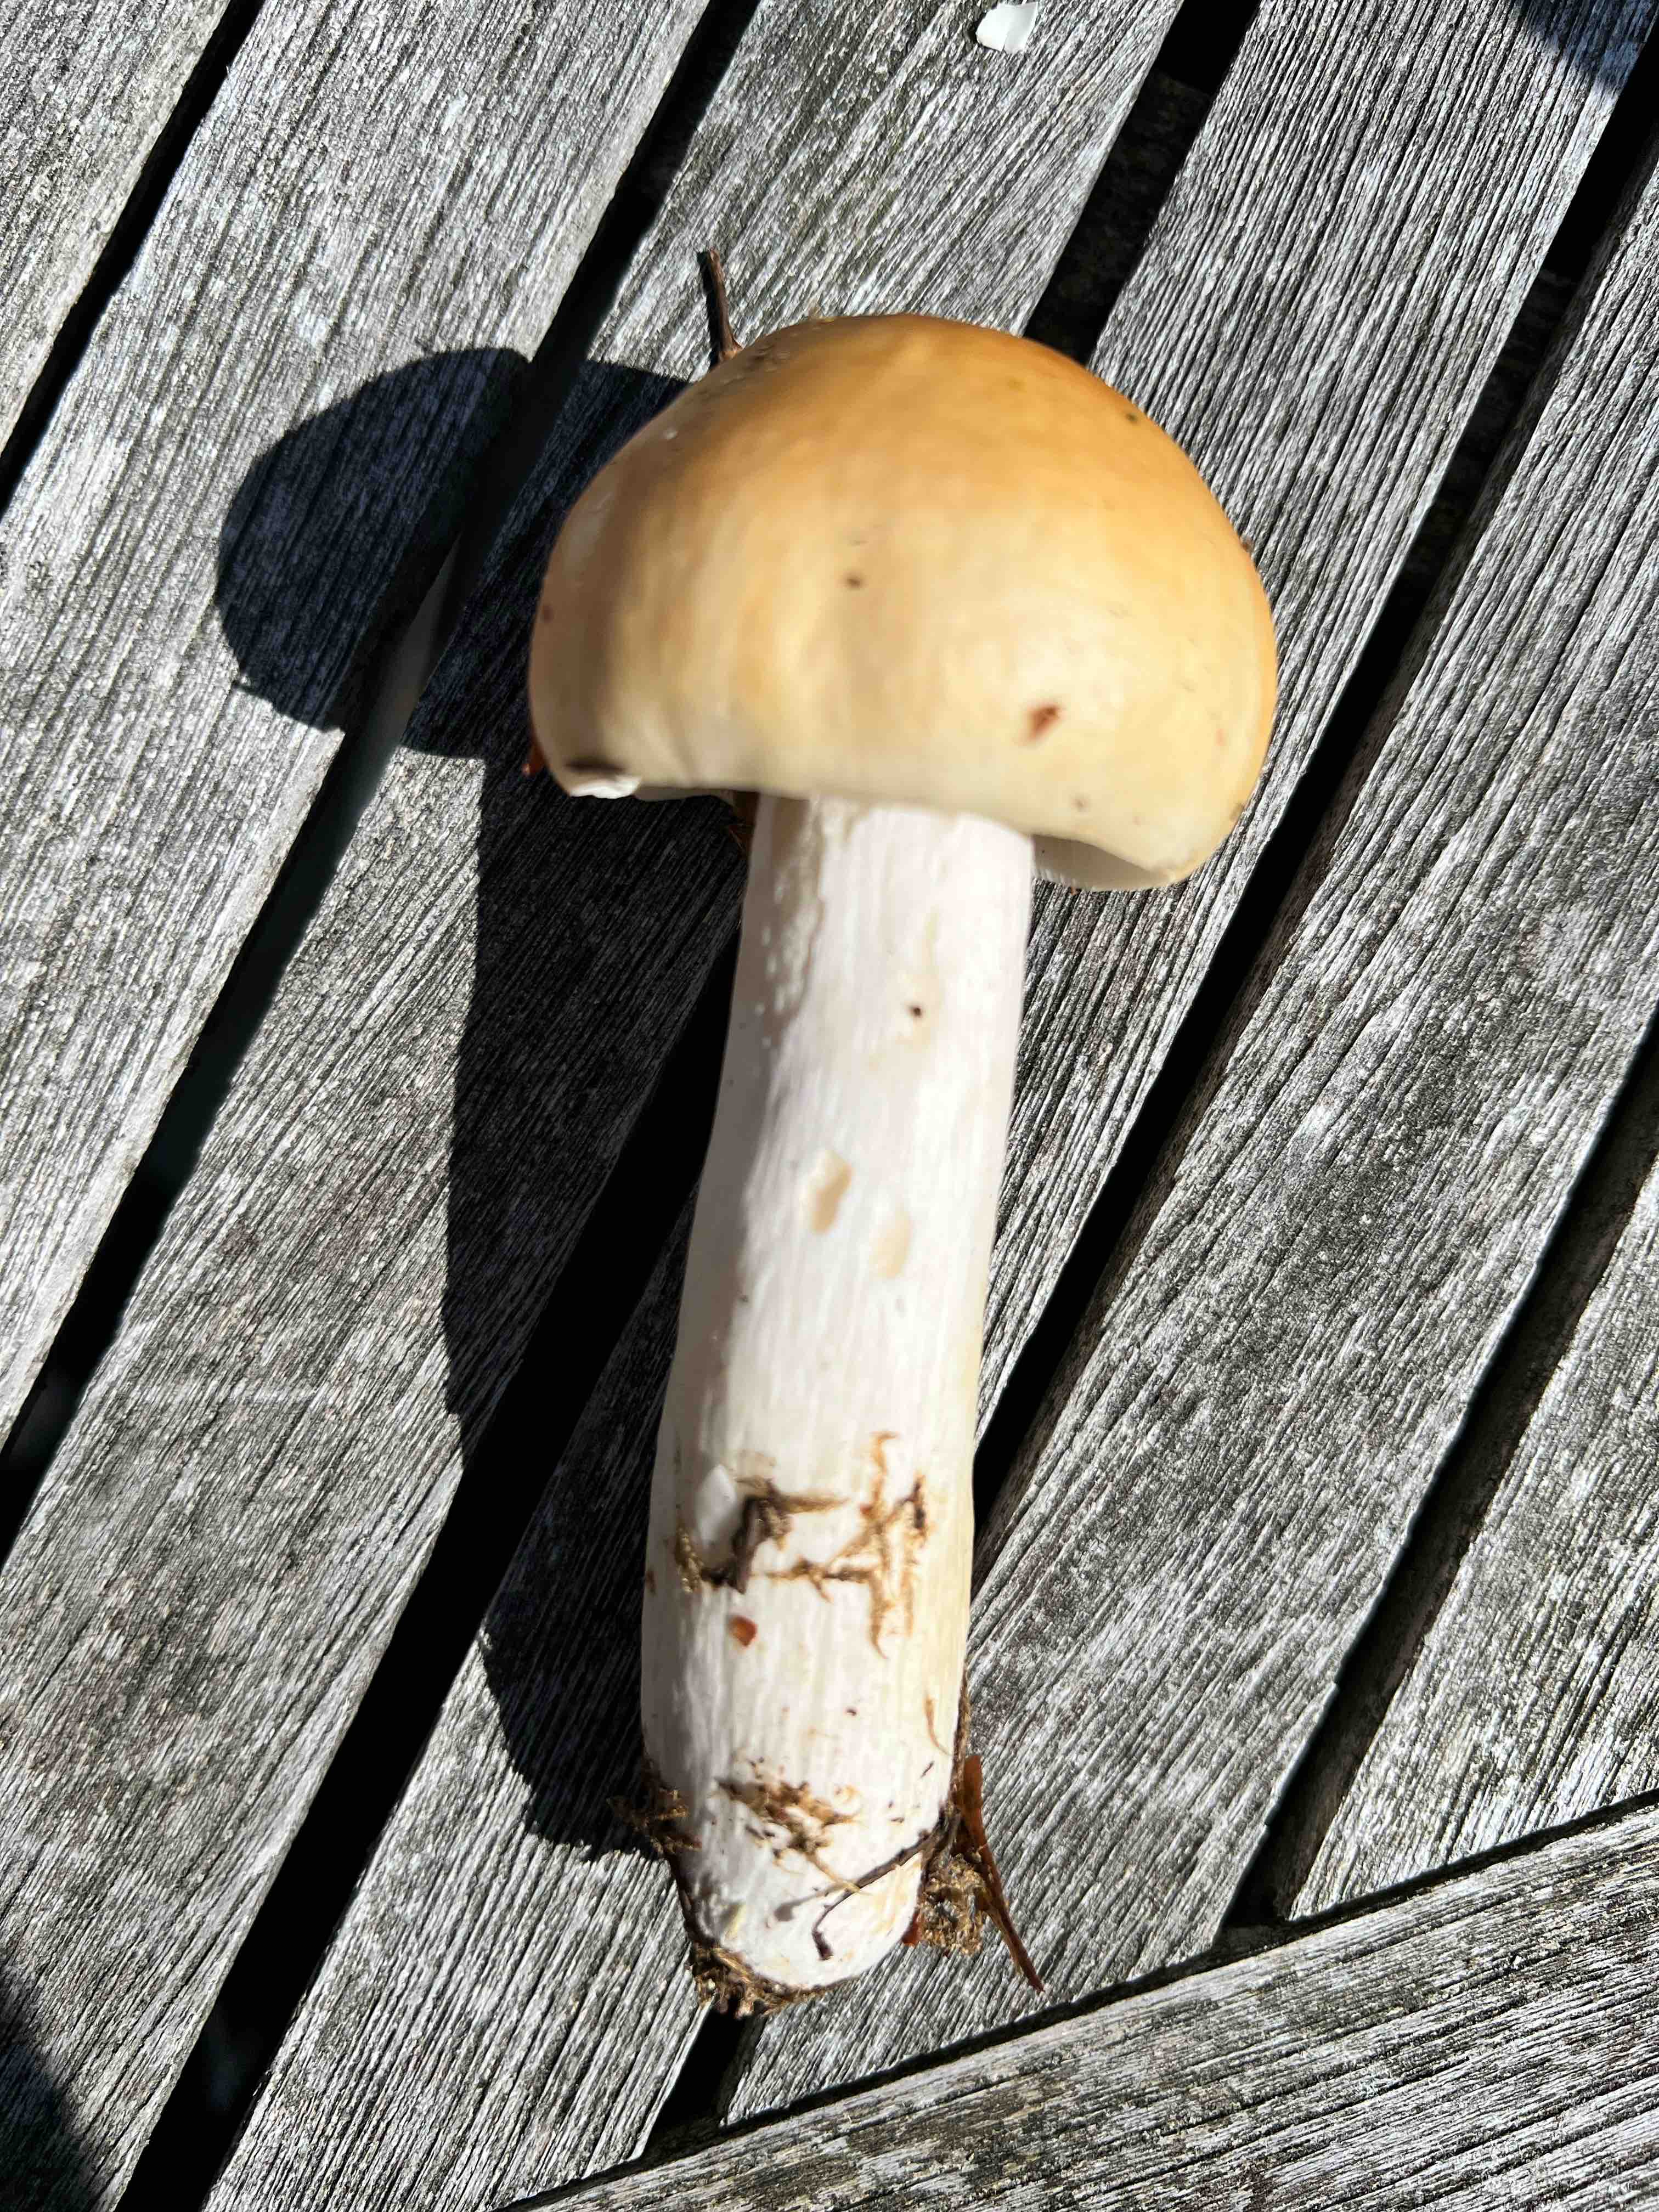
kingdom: Fungi
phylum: Basidiomycota
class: Agaricomycetes
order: Russulales
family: Russulaceae
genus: Russula
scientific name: Russula
